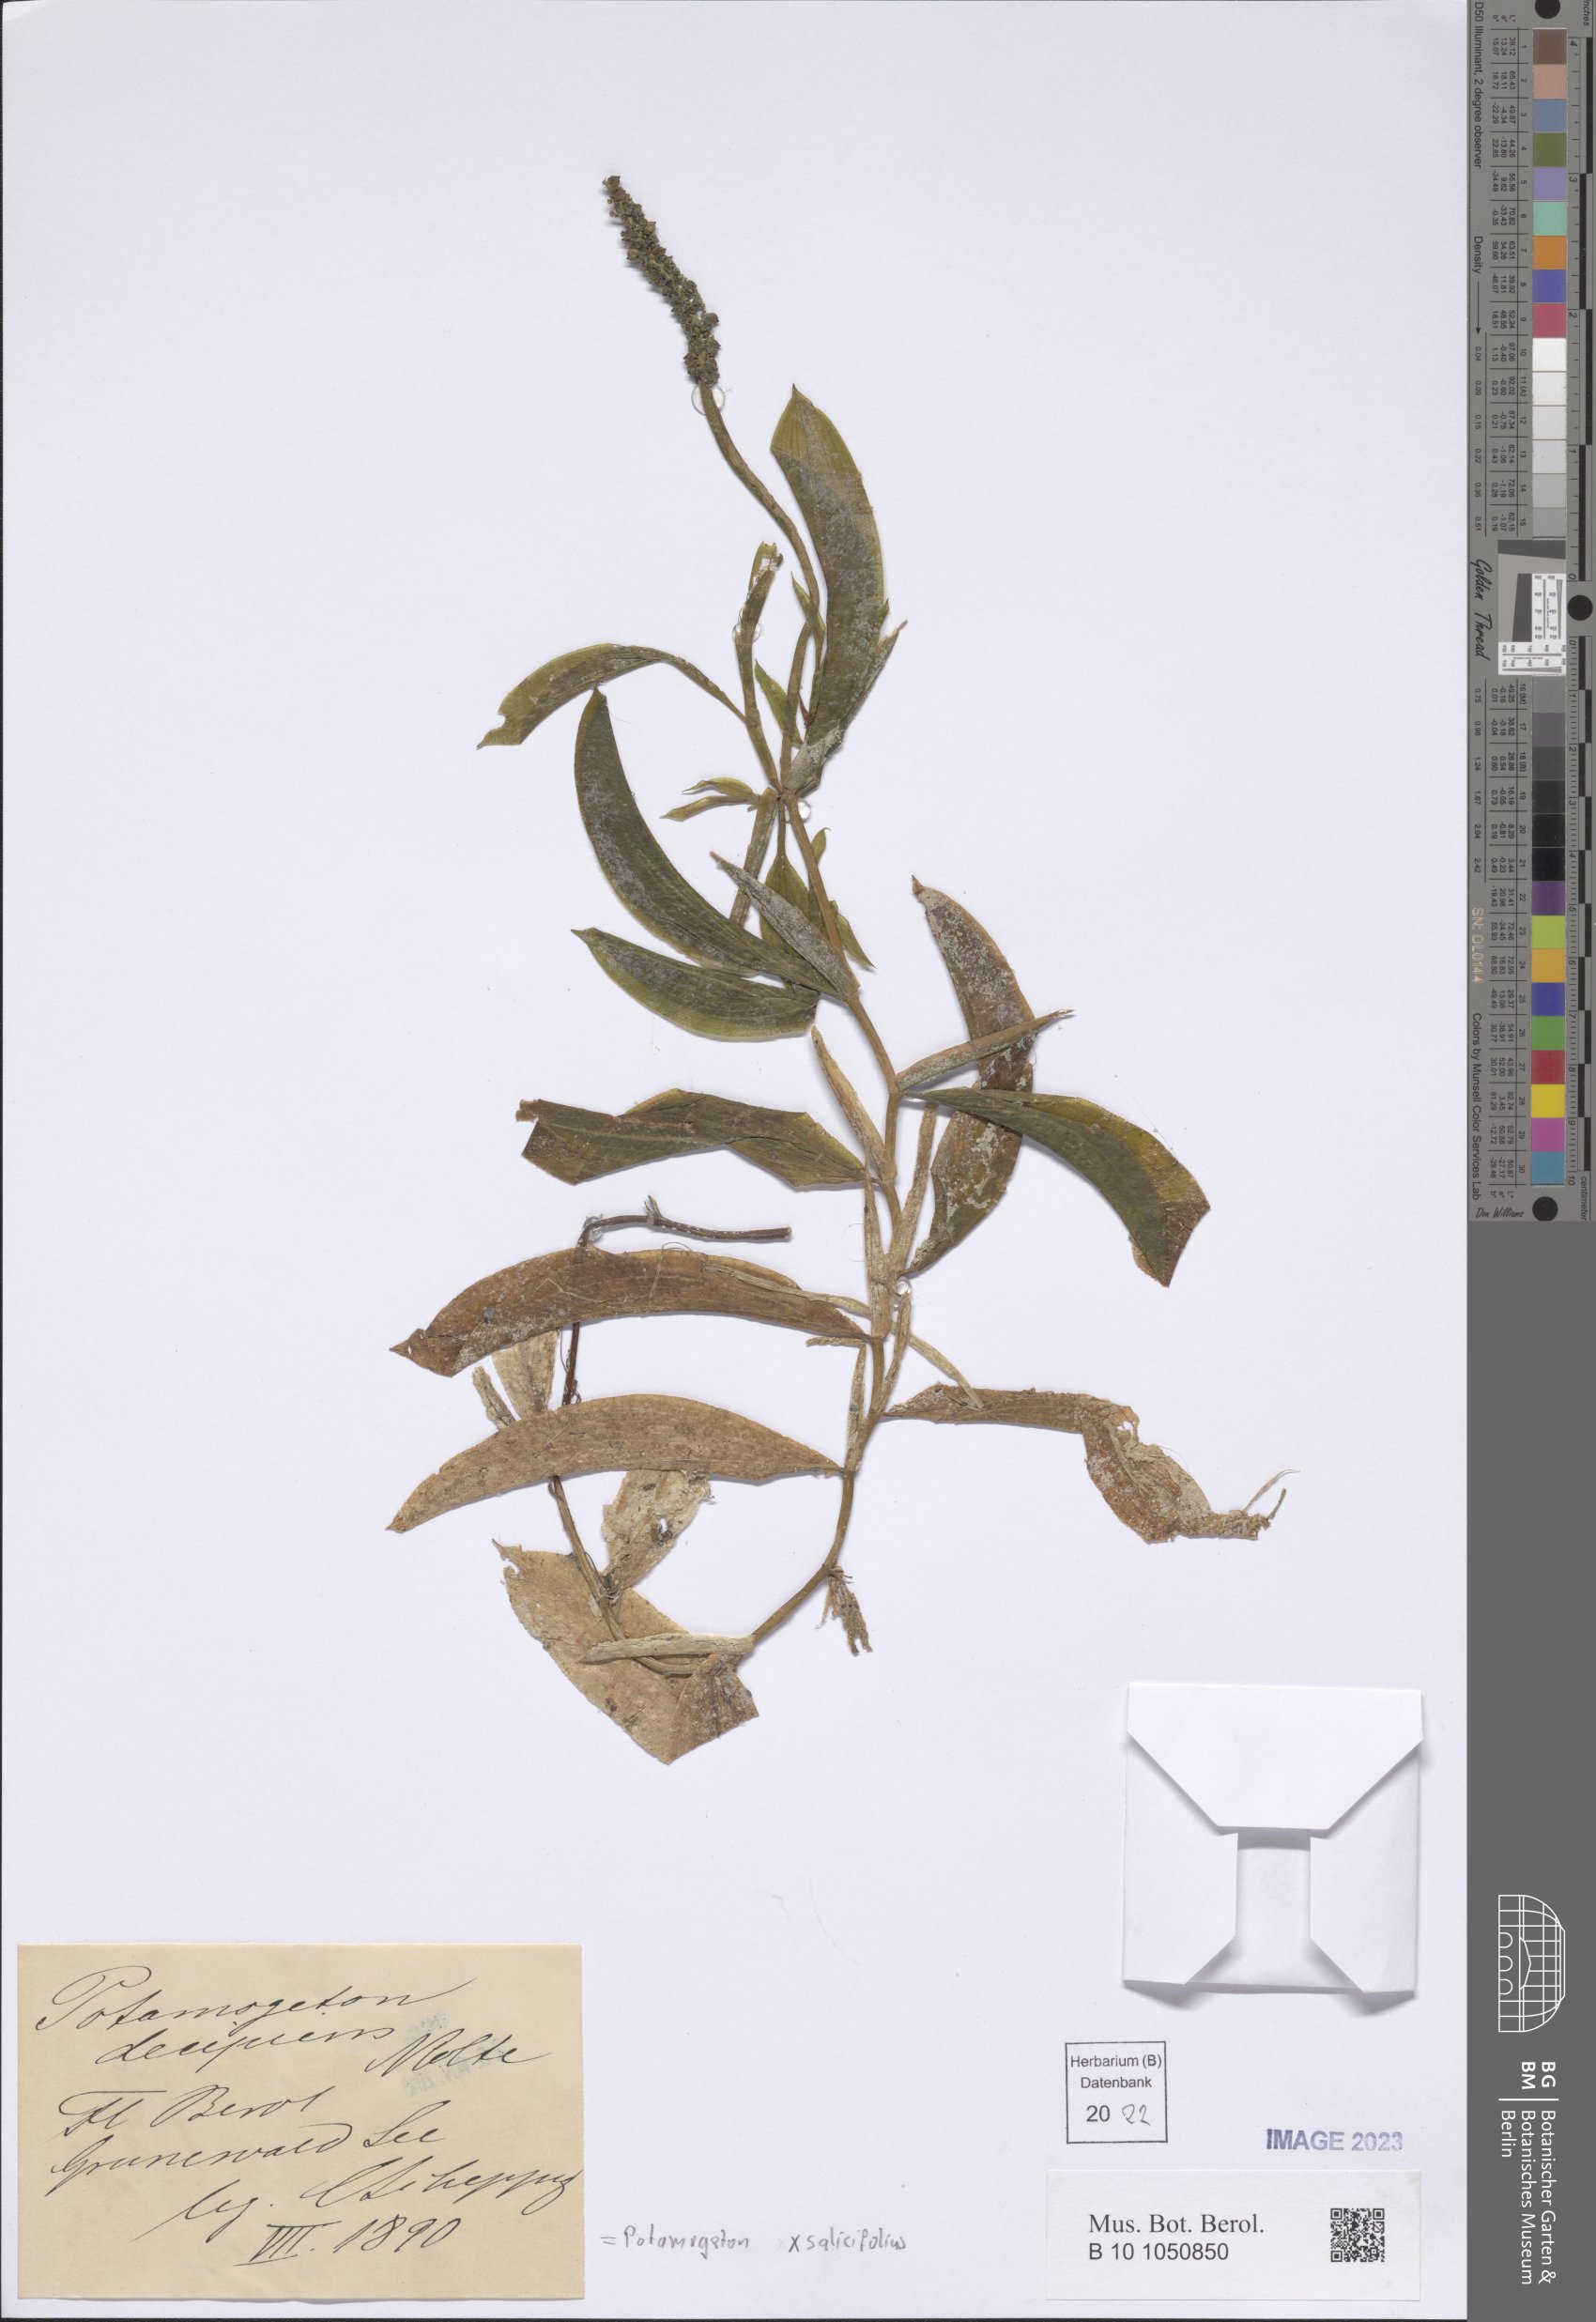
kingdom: Plantae
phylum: Tracheophyta
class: Liliopsida
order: Alismatales
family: Potamogetonaceae
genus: Potamogeton
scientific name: Potamogeton salicifolius
